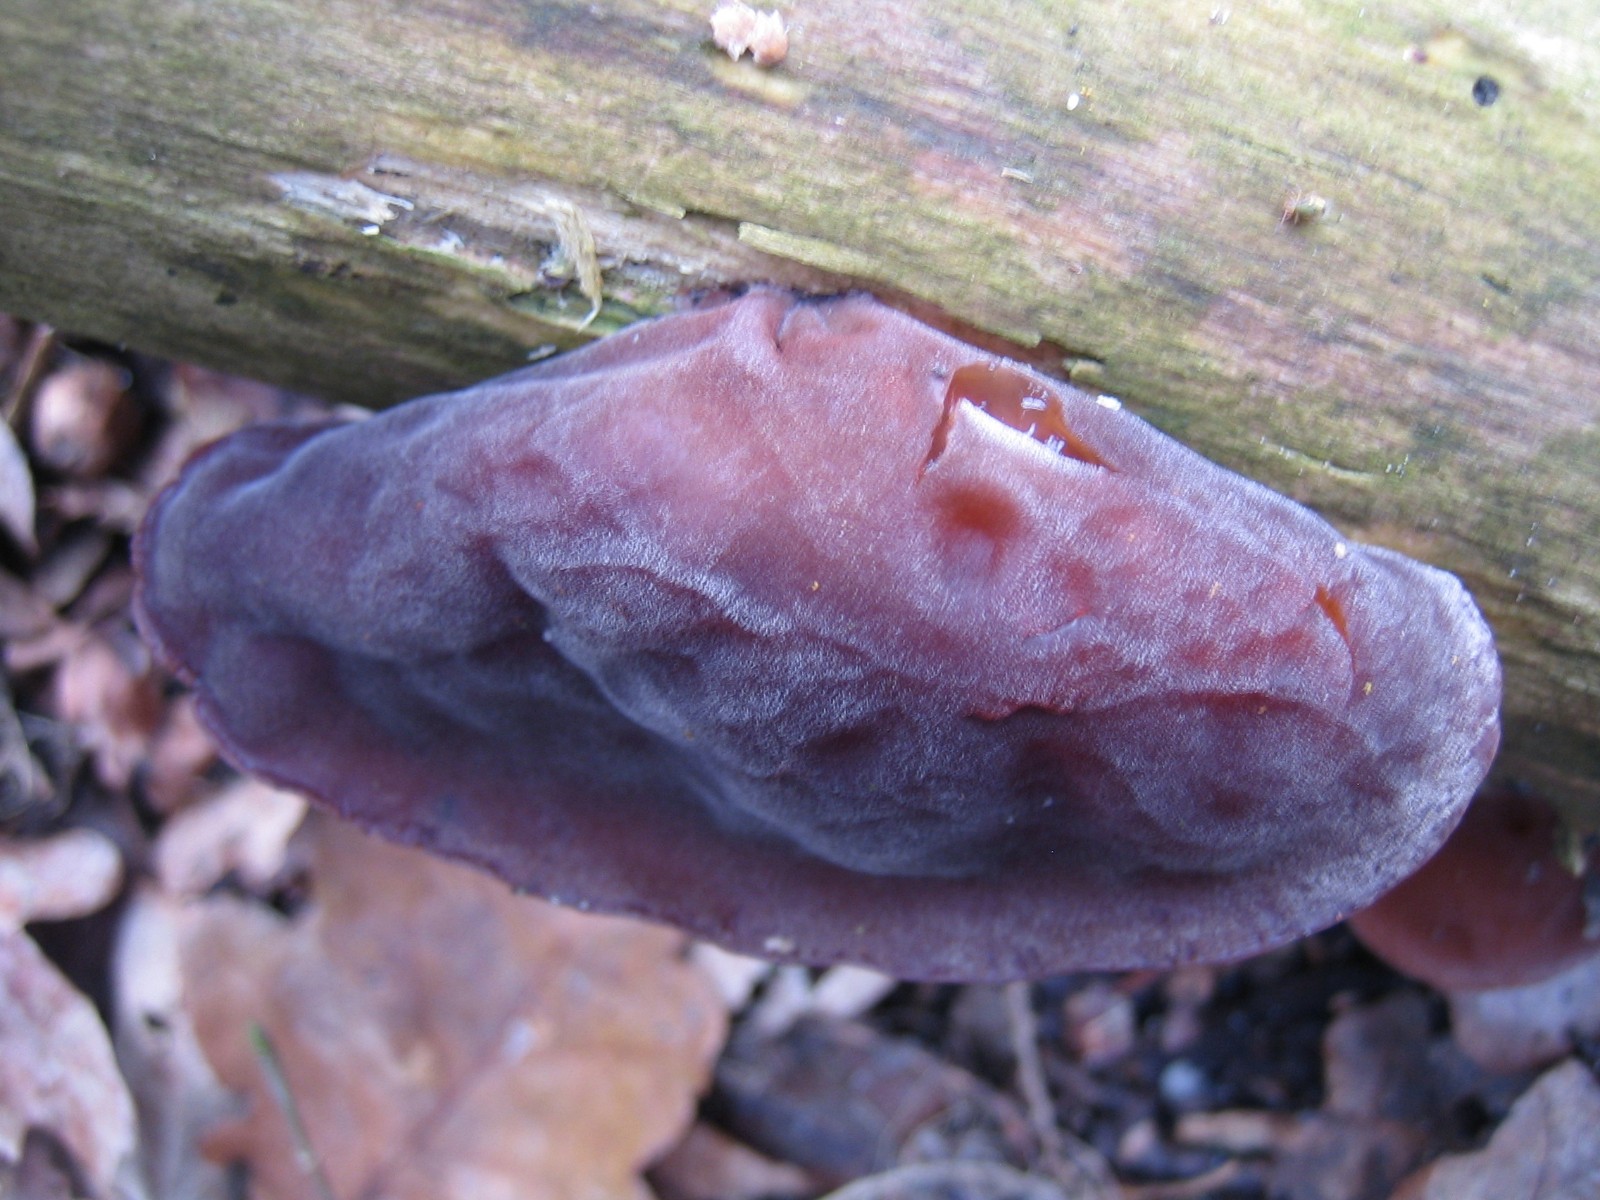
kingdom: Fungi
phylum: Basidiomycota
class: Agaricomycetes
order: Auriculariales
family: Auriculariaceae
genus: Auricularia
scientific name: Auricularia auricula-judae
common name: almindelig judasøre
